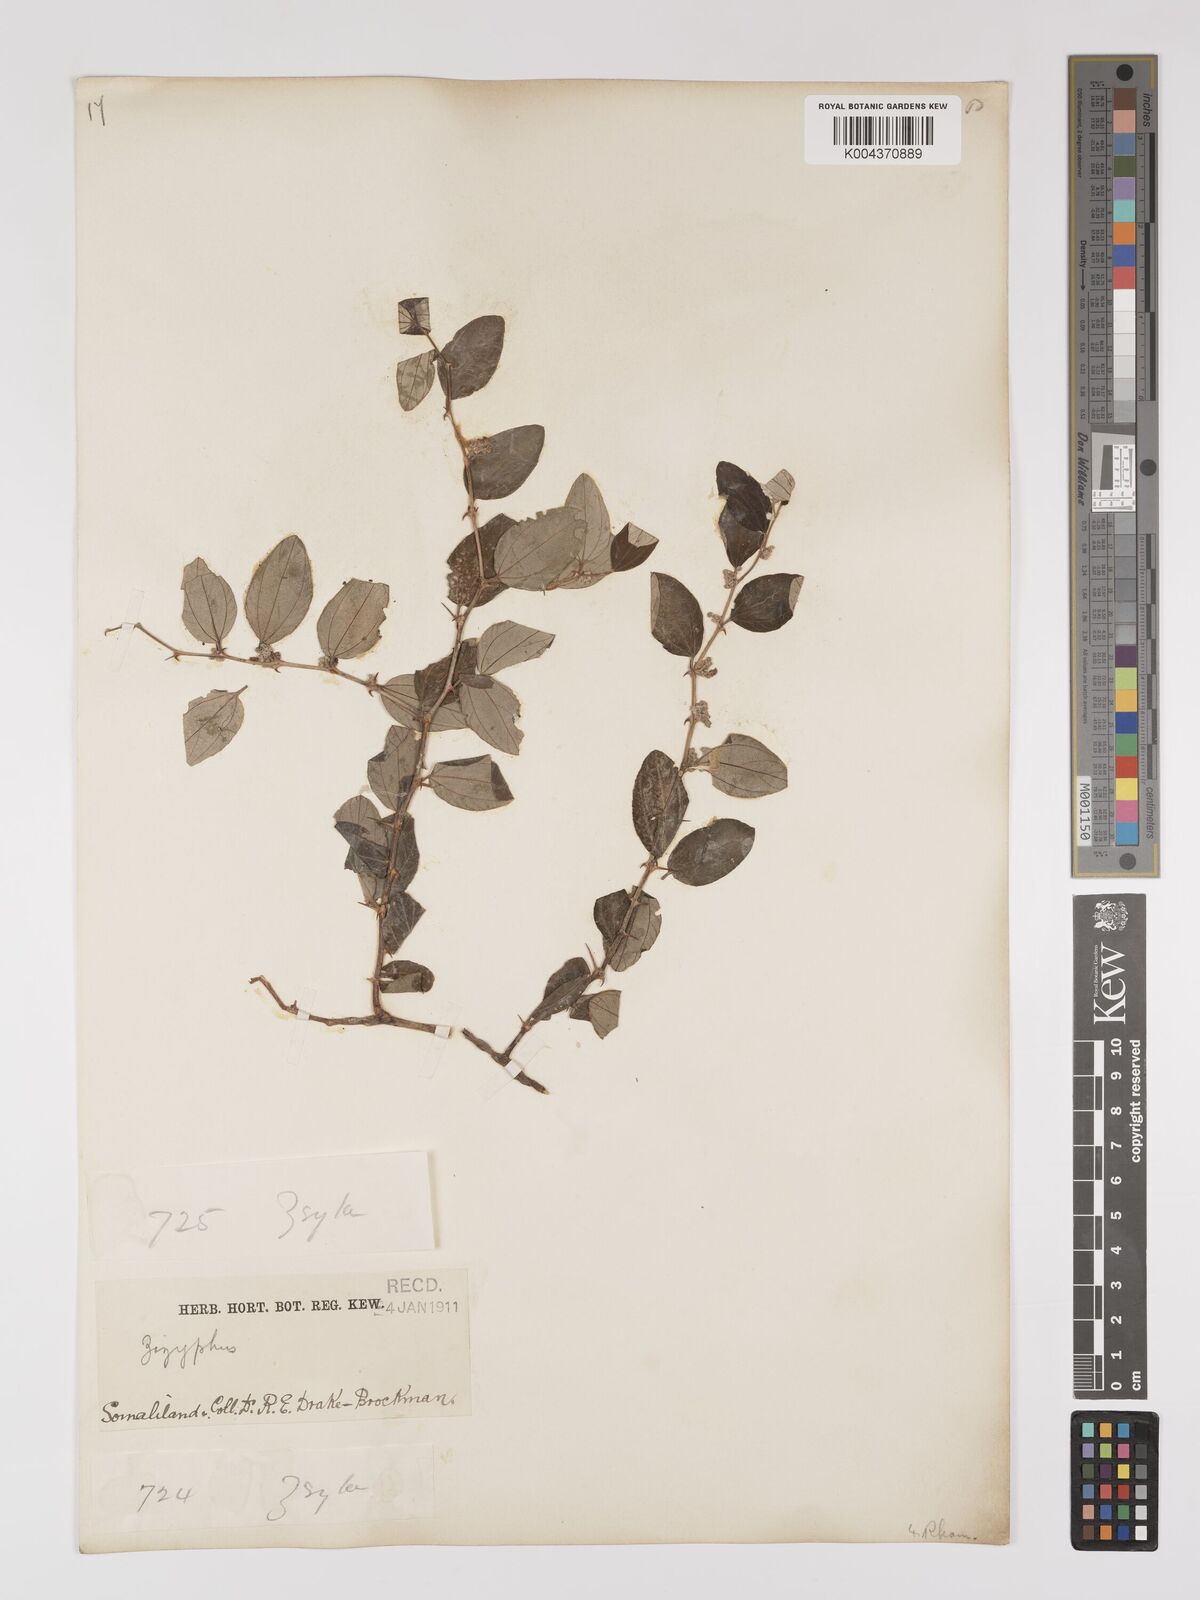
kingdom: Plantae
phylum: Tracheophyta
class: Magnoliopsida
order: Rosales
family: Rhamnaceae
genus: Ziziphus
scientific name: Ziziphus spina-christi
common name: Syrian christ-thorn
